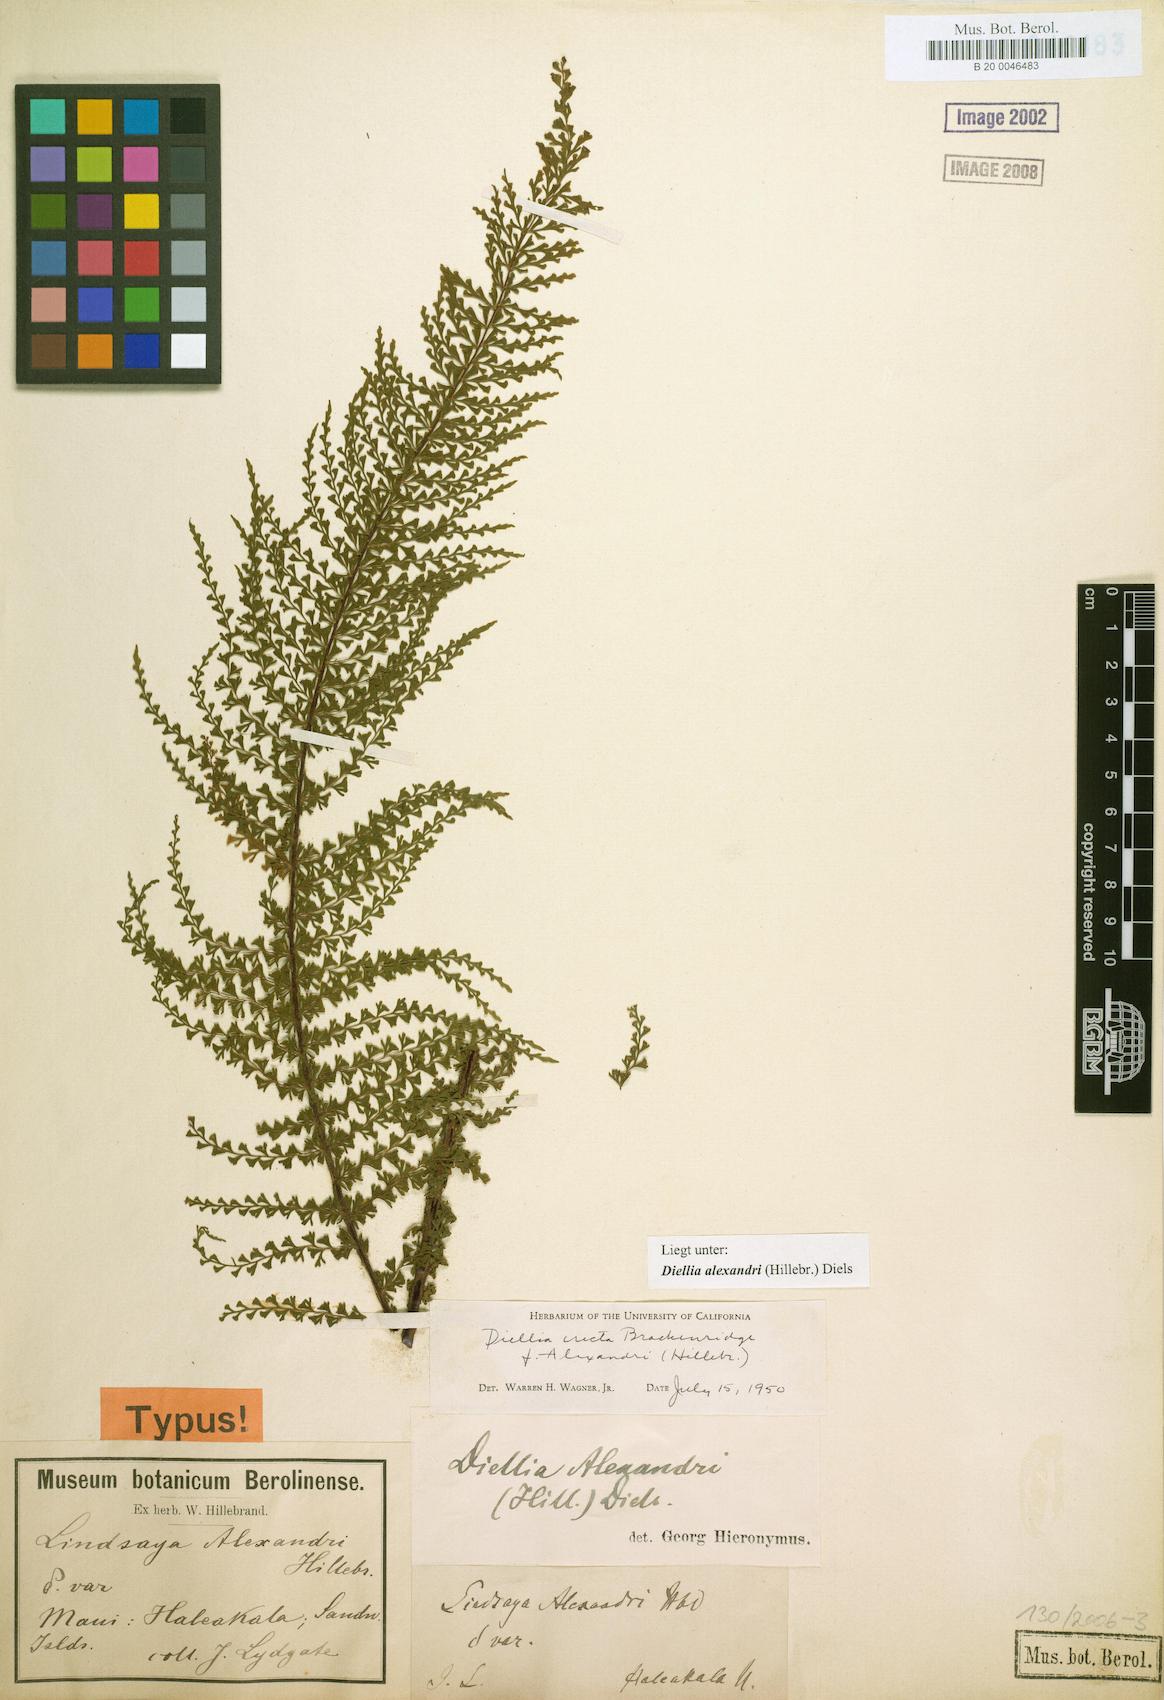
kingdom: Plantae
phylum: Tracheophyta
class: Polypodiopsida
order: Polypodiales
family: Aspleniaceae
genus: Asplenium
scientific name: Asplenium dielerectum
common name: Erect island spleenwort
